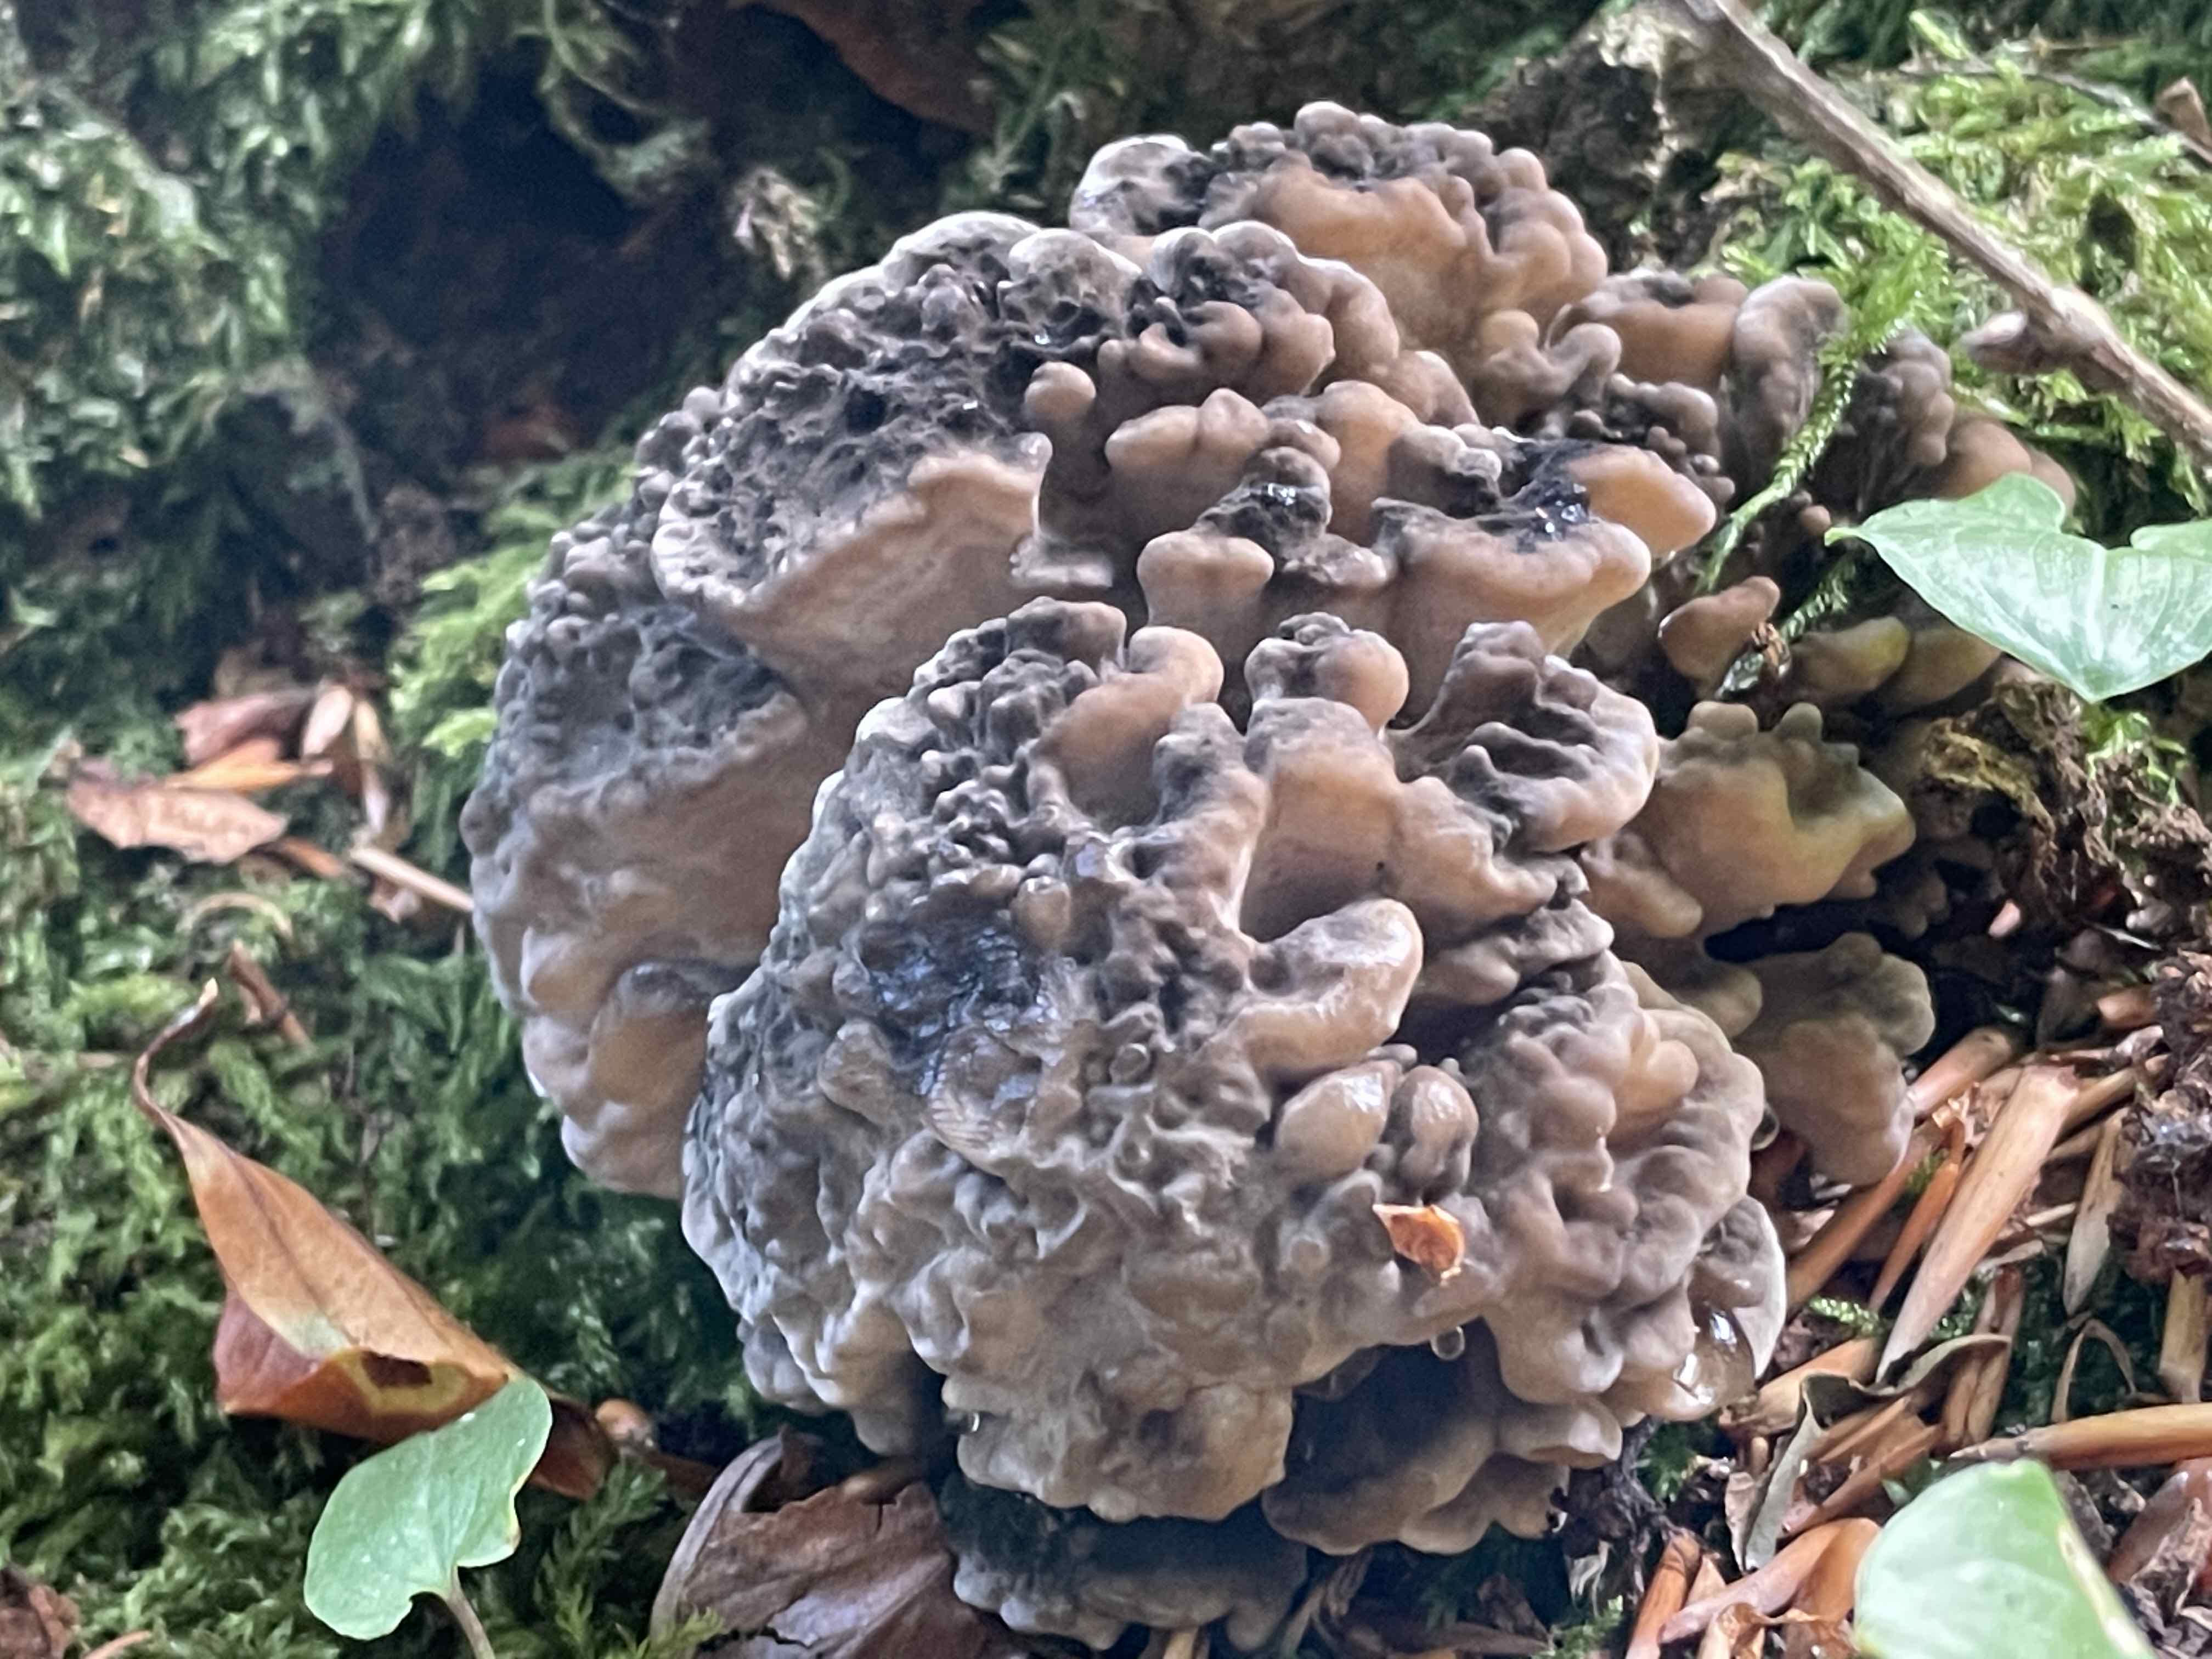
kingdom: Fungi
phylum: Basidiomycota
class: Agaricomycetes
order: Polyporales
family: Grifolaceae
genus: Grifola
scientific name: Grifola frondosa
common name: tueporesvamp
